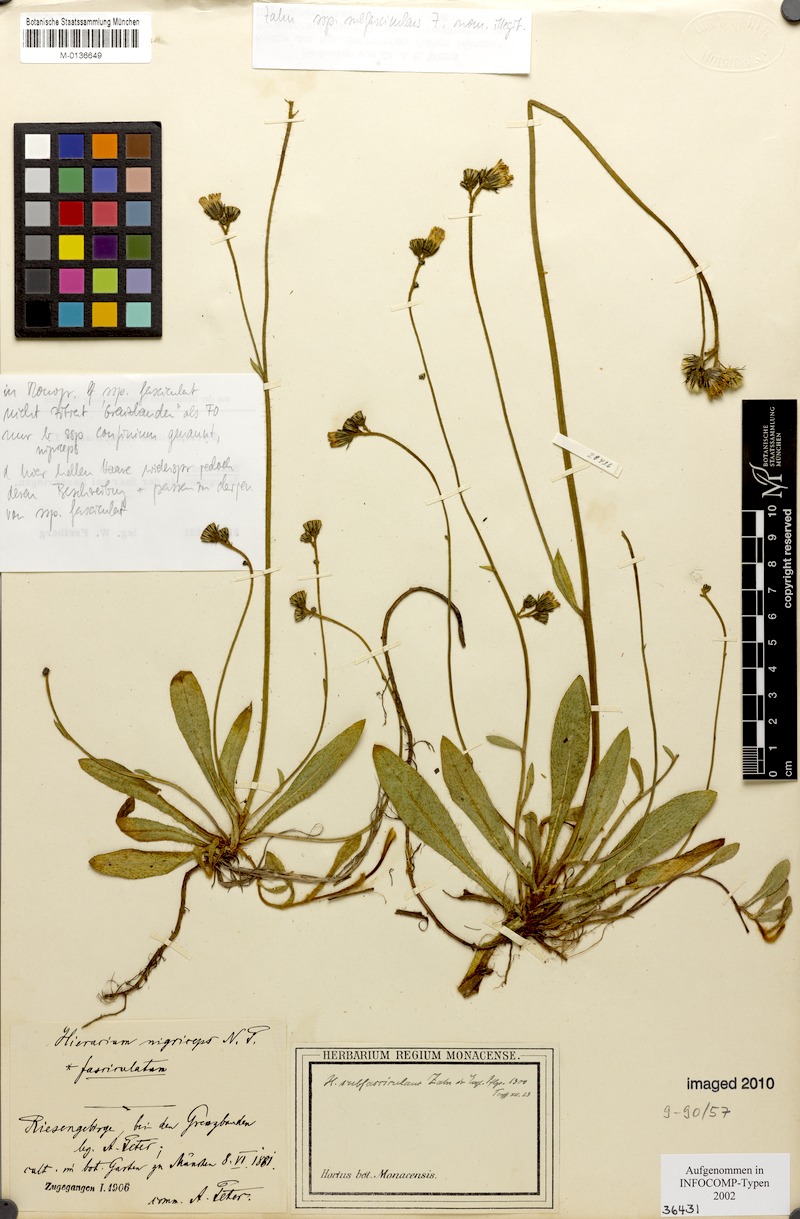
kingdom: Plantae
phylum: Tracheophyta
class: Magnoliopsida
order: Asterales
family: Asteraceae
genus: Pilosella
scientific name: Pilosella iserana
